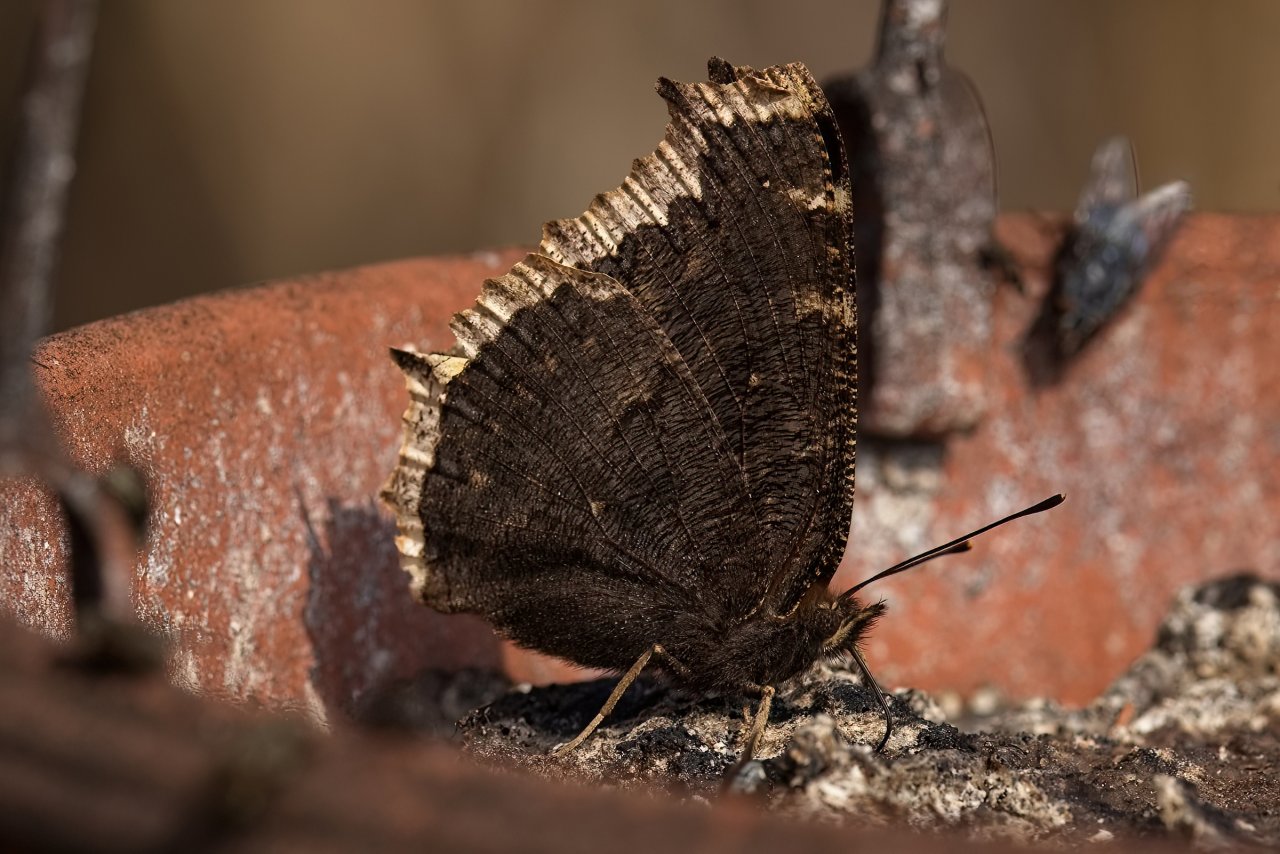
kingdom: Animalia
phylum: Arthropoda
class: Insecta
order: Lepidoptera
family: Nymphalidae
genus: Nymphalis
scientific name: Nymphalis antiopa
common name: Mourning Cloak
